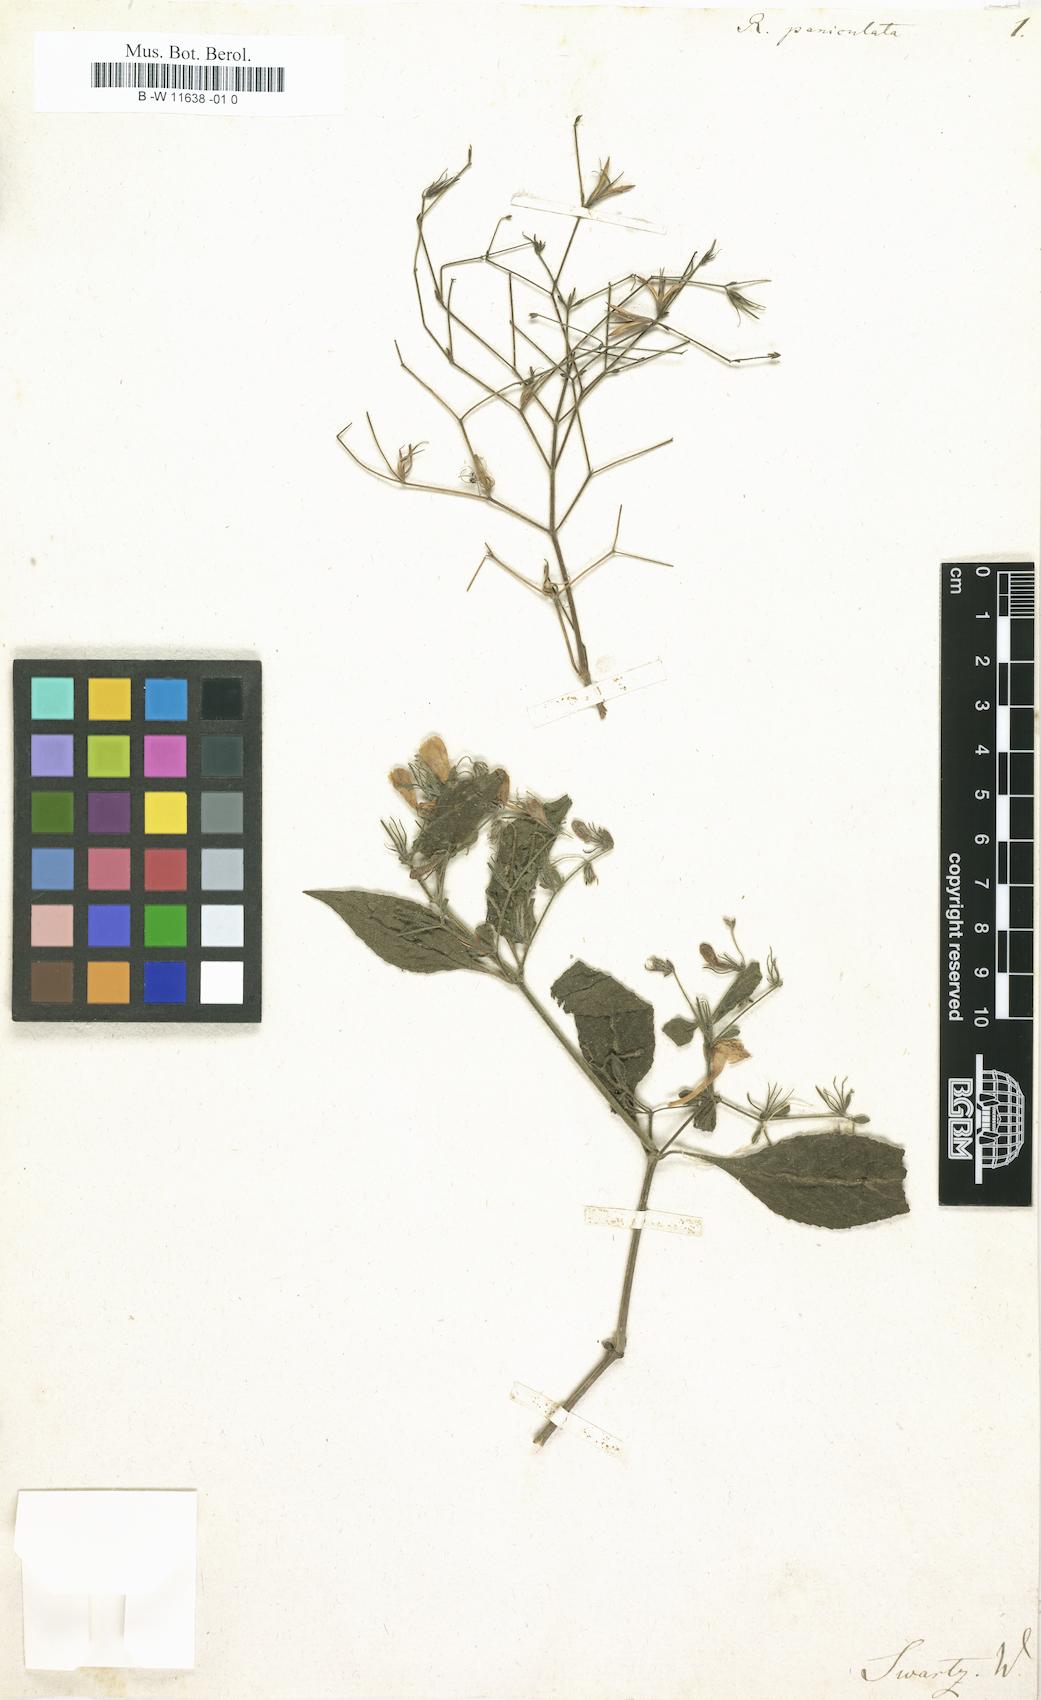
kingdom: Plantae
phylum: Tracheophyta
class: Magnoliopsida
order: Lamiales
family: Acanthaceae
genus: Ruellia
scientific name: Ruellia paniculata
